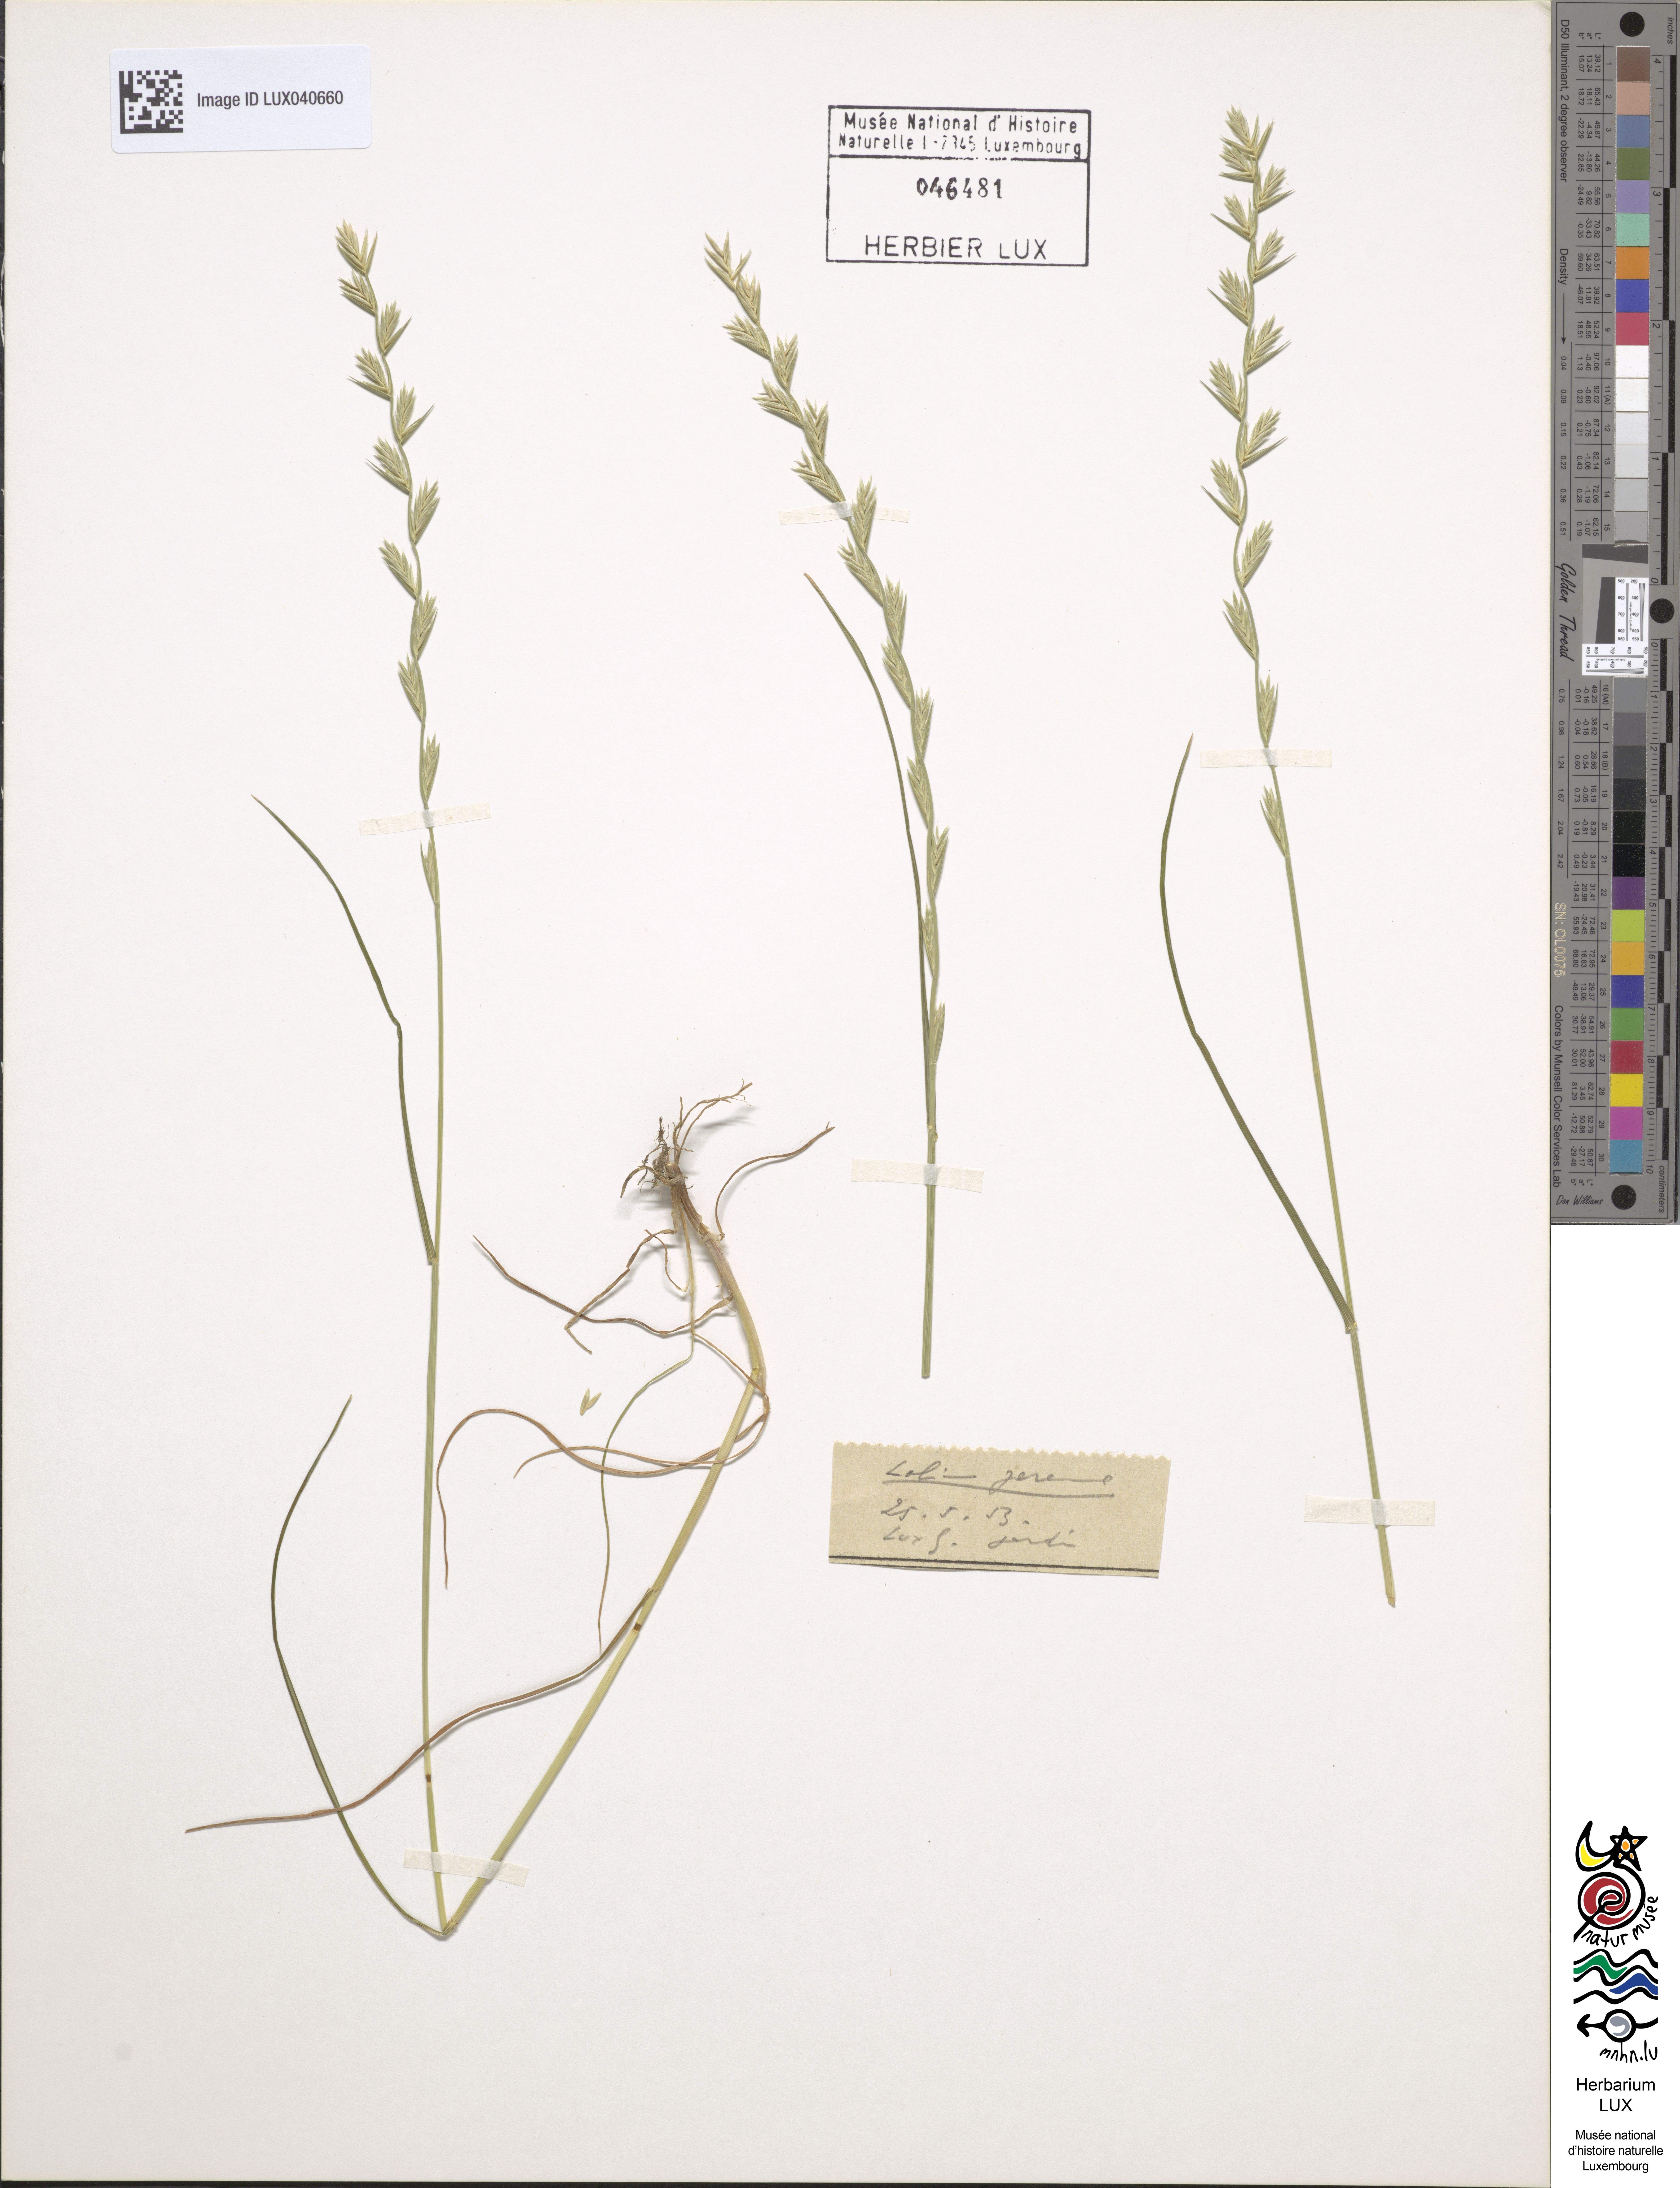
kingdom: Plantae
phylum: Tracheophyta
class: Liliopsida
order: Poales
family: Poaceae
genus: Lolium
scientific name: Lolium perenne
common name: Perennial ryegrass
